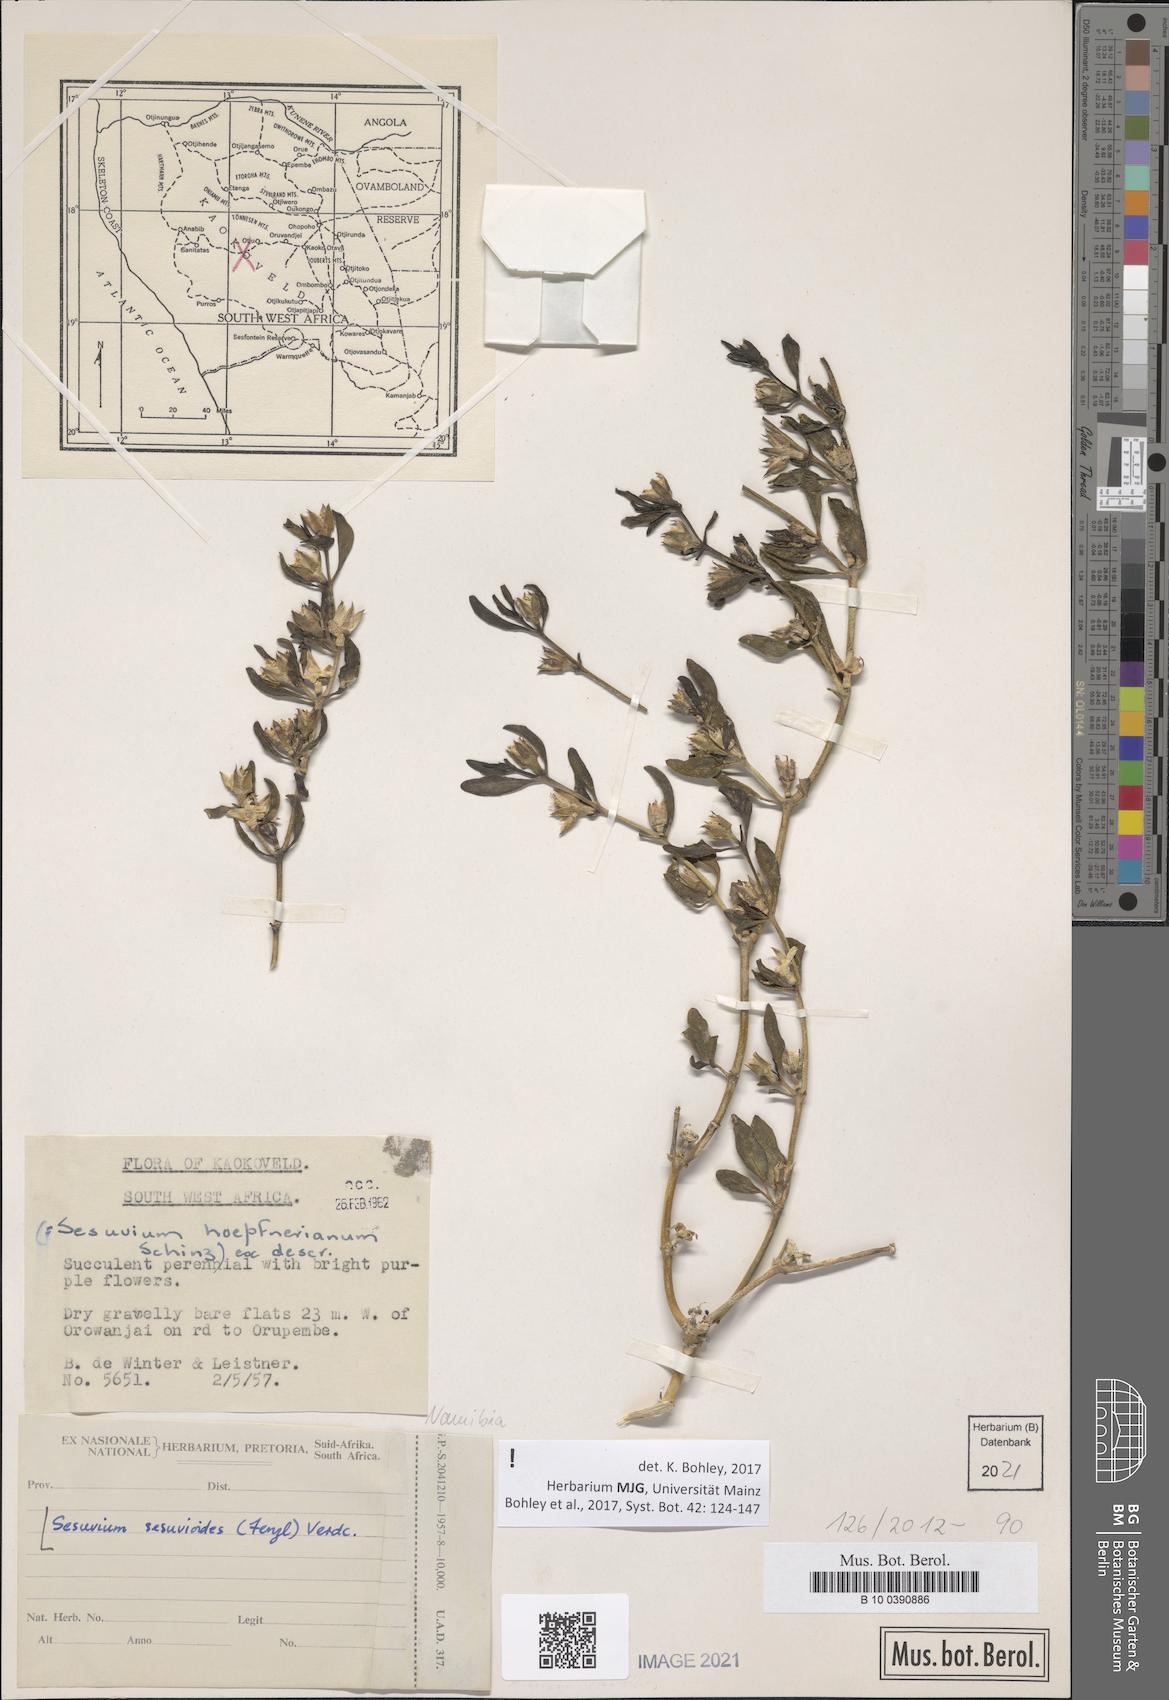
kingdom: Plantae
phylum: Tracheophyta
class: Magnoliopsida
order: Caryophyllales
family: Aizoaceae
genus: Sesuvium
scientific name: Sesuvium sesuvioides
